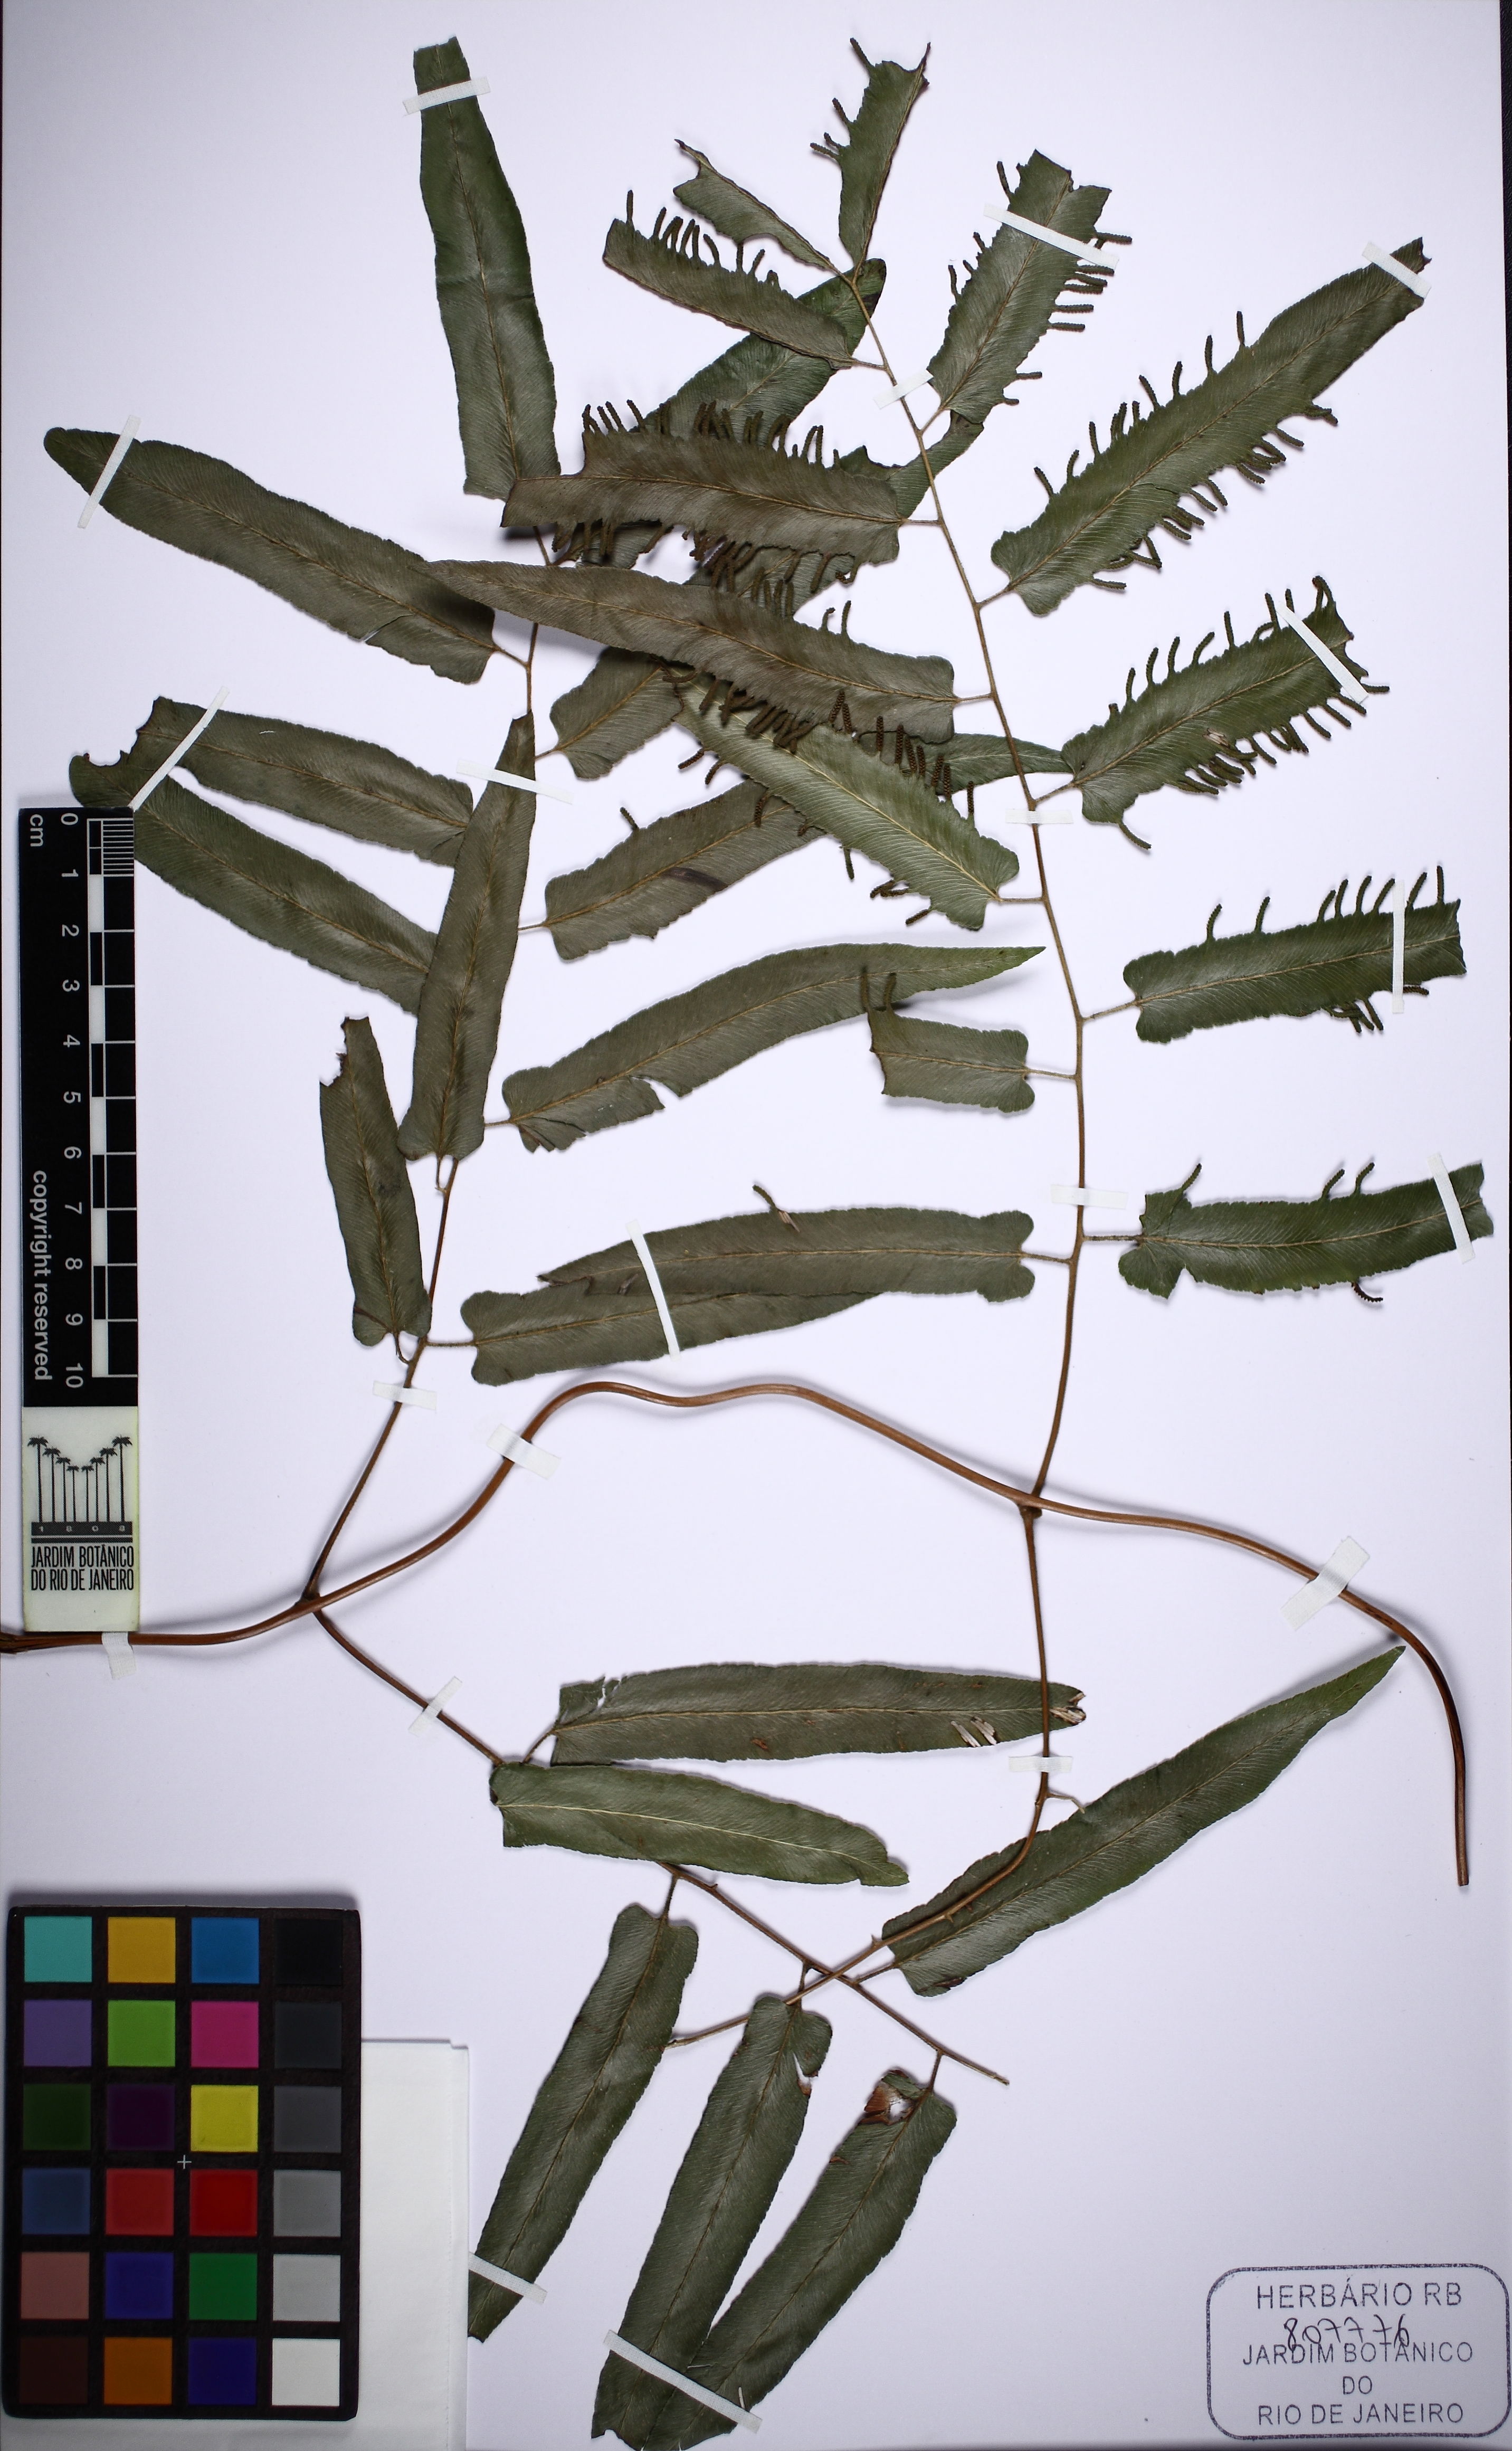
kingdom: Plantae
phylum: Tracheophyta
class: Polypodiopsida
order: Schizaeales
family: Lygodiaceae
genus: Lygodium
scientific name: Lygodium volubile
